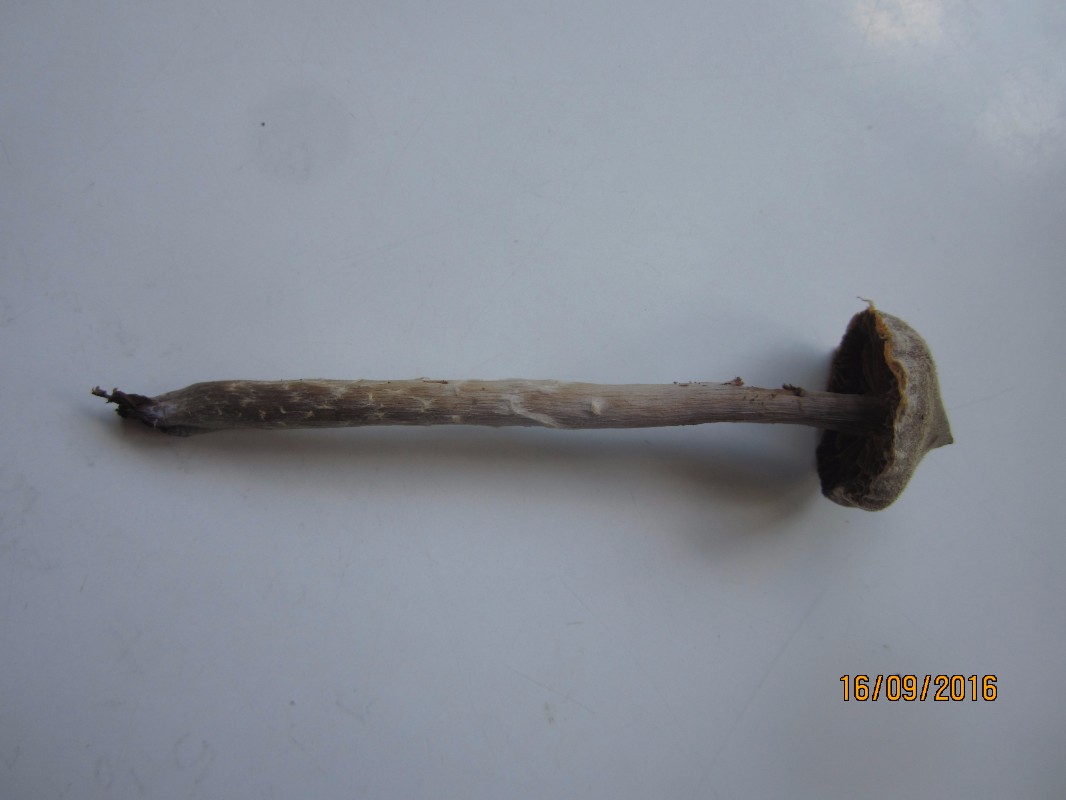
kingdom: Fungi
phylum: Basidiomycota
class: Agaricomycetes
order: Agaricales
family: Cortinariaceae
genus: Cortinarius
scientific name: Cortinarius
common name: pelargonie-slørhat
